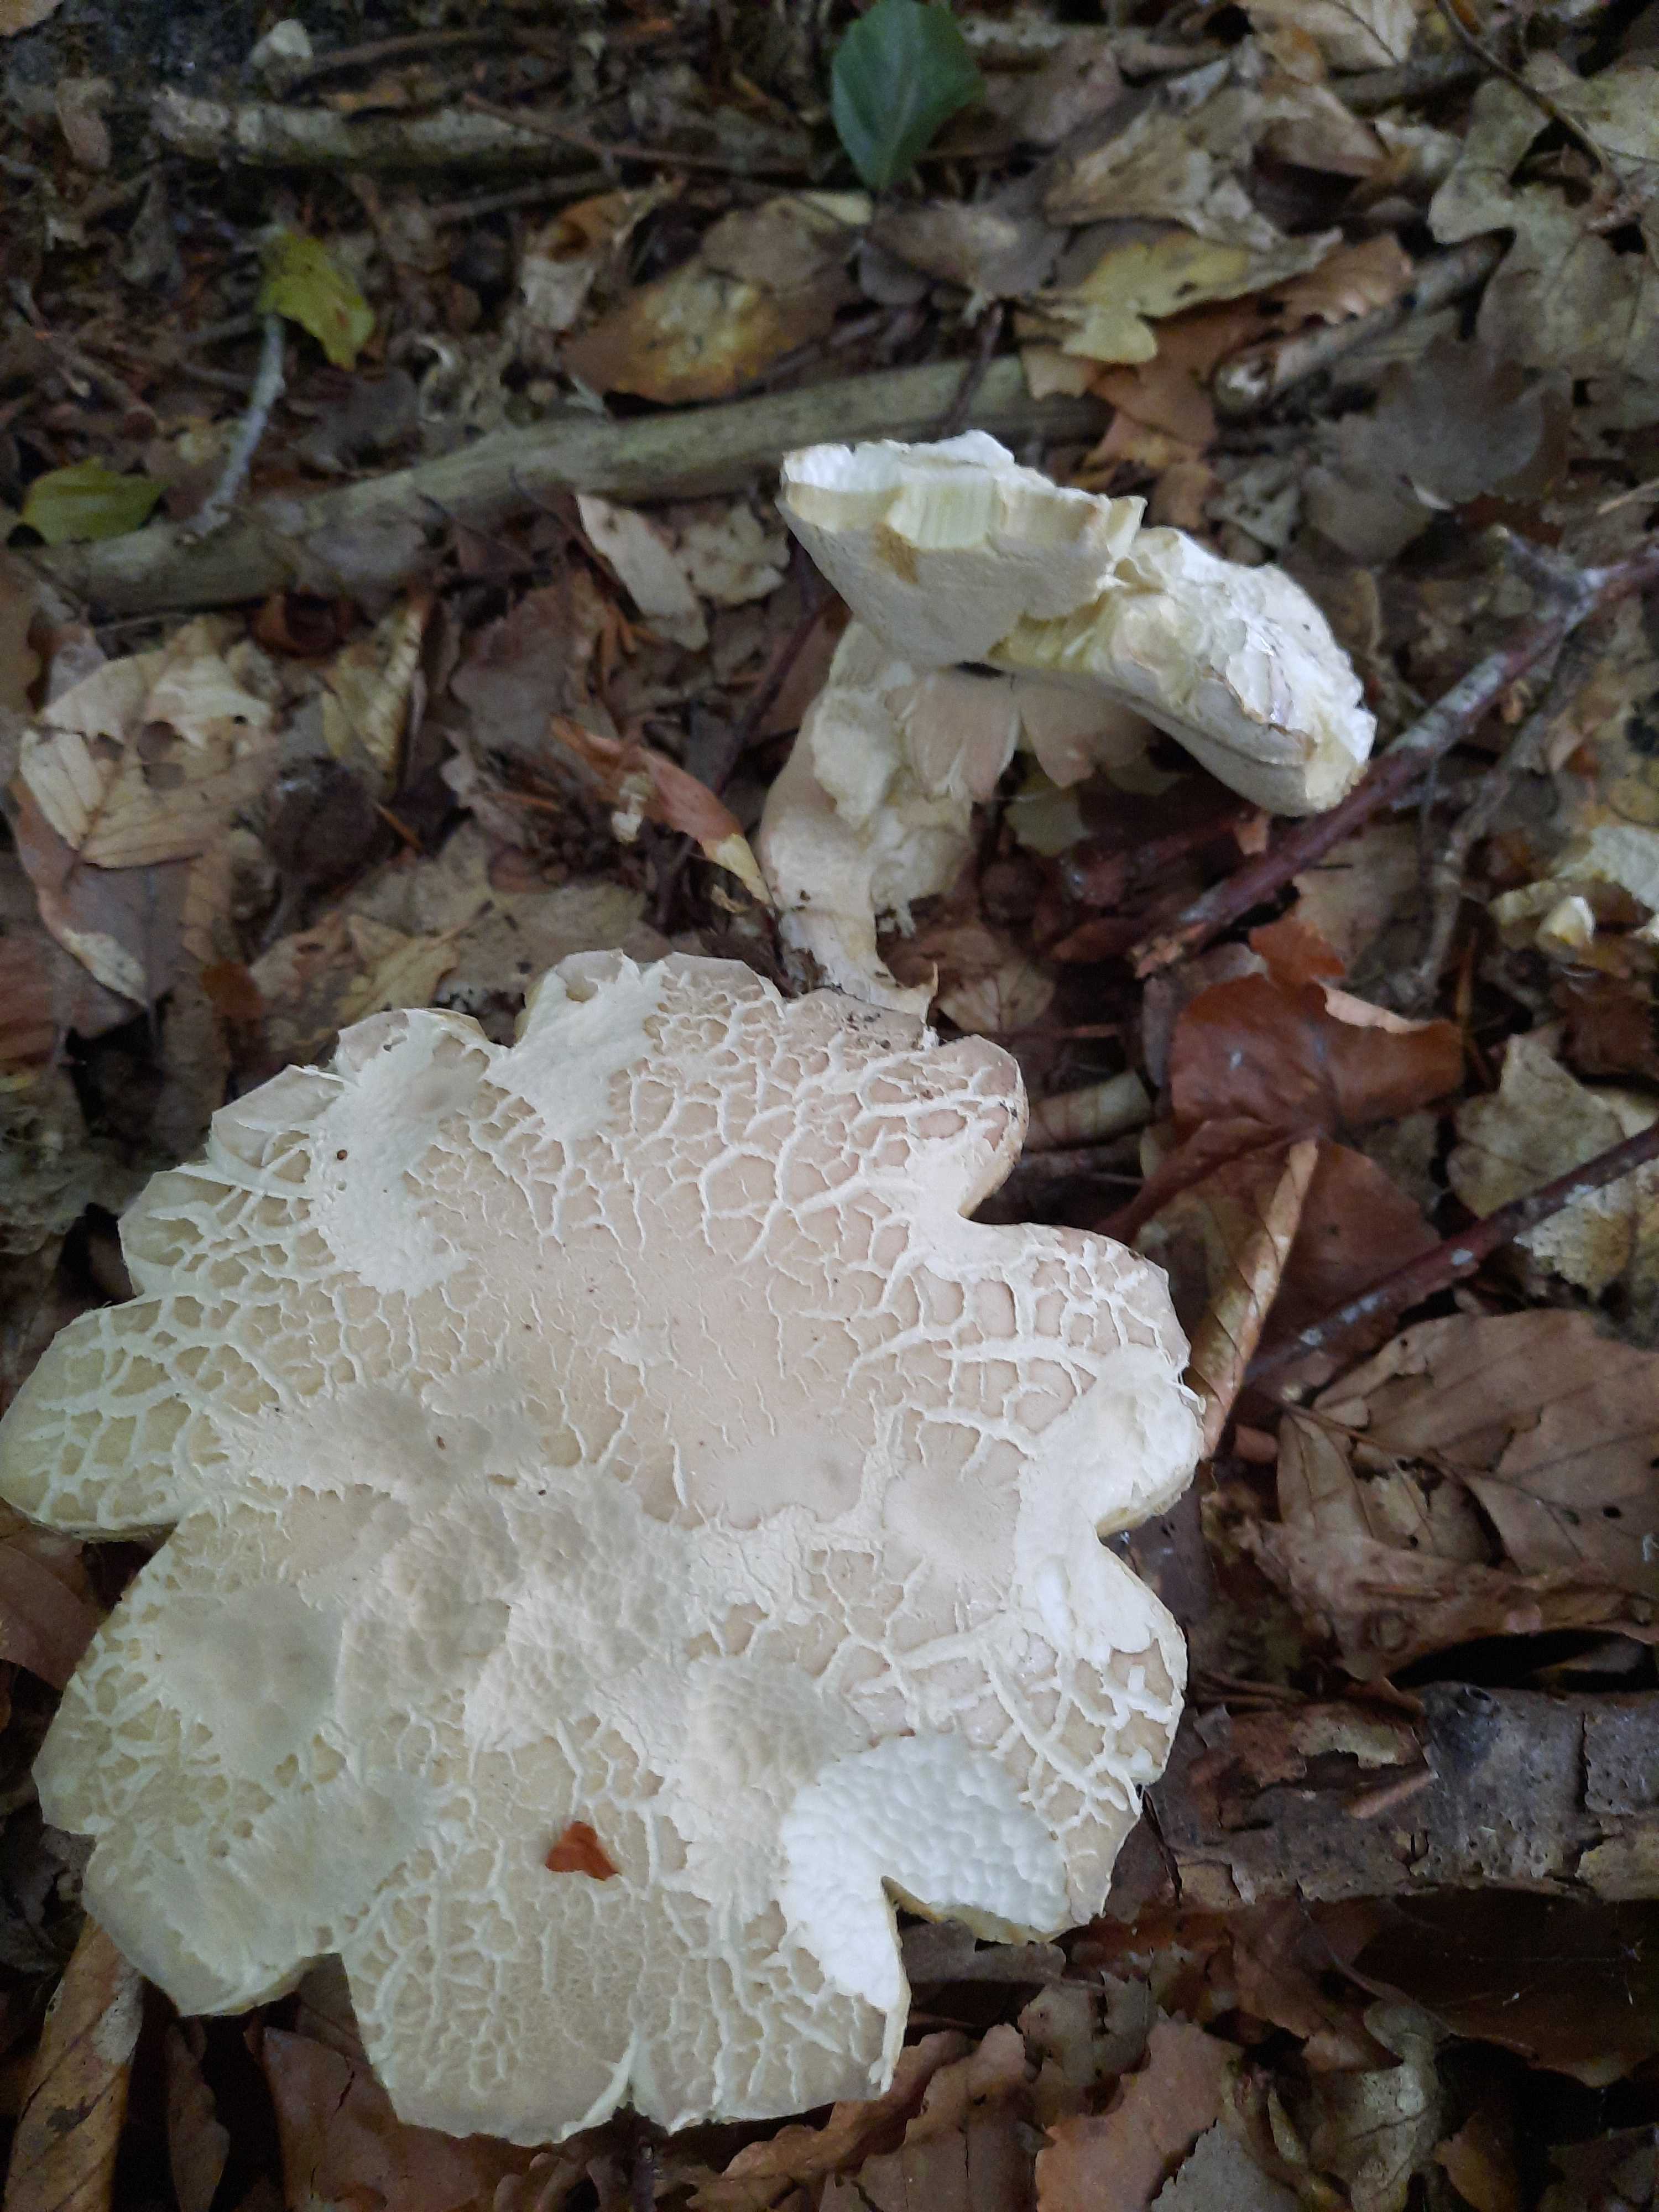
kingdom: Fungi
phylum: Basidiomycota
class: Agaricomycetes
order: Boletales
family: Boletaceae
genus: Boletus
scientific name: Boletus reticulatus
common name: sommer-rørhat
